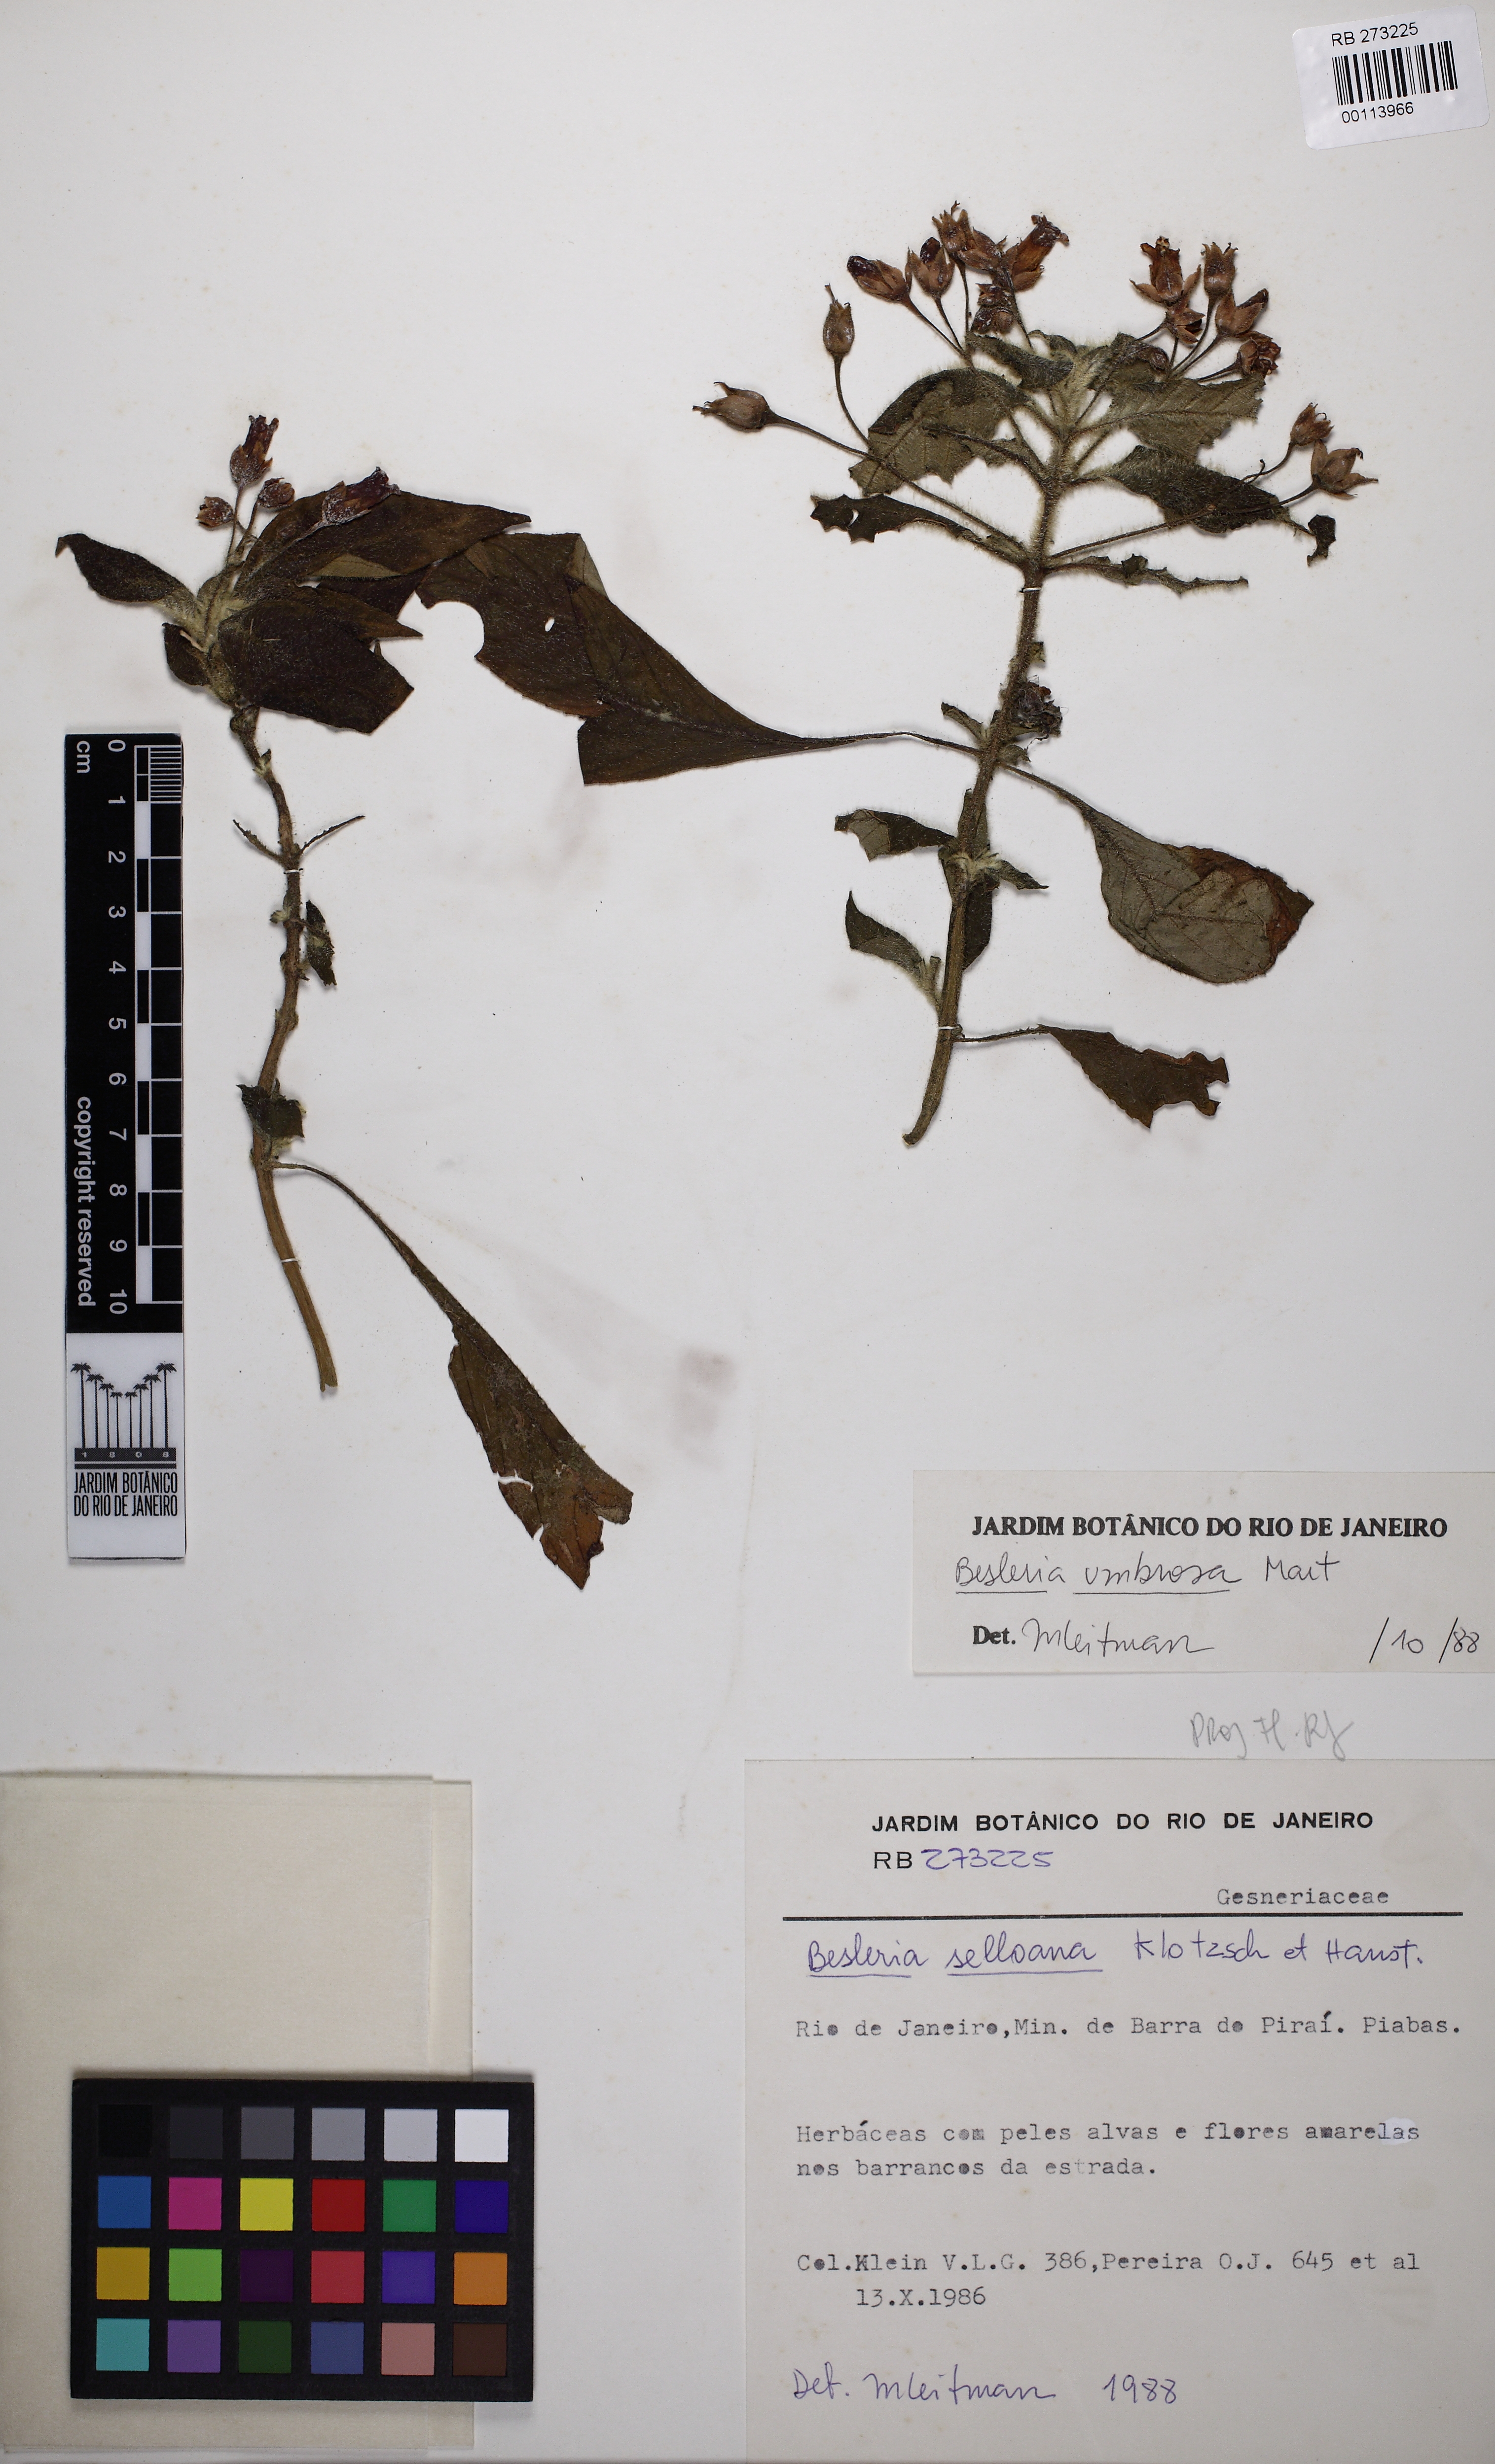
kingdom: Plantae
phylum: Tracheophyta
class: Magnoliopsida
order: Lamiales
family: Gesneriaceae
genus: Besleria
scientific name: Besleria umbrosa
